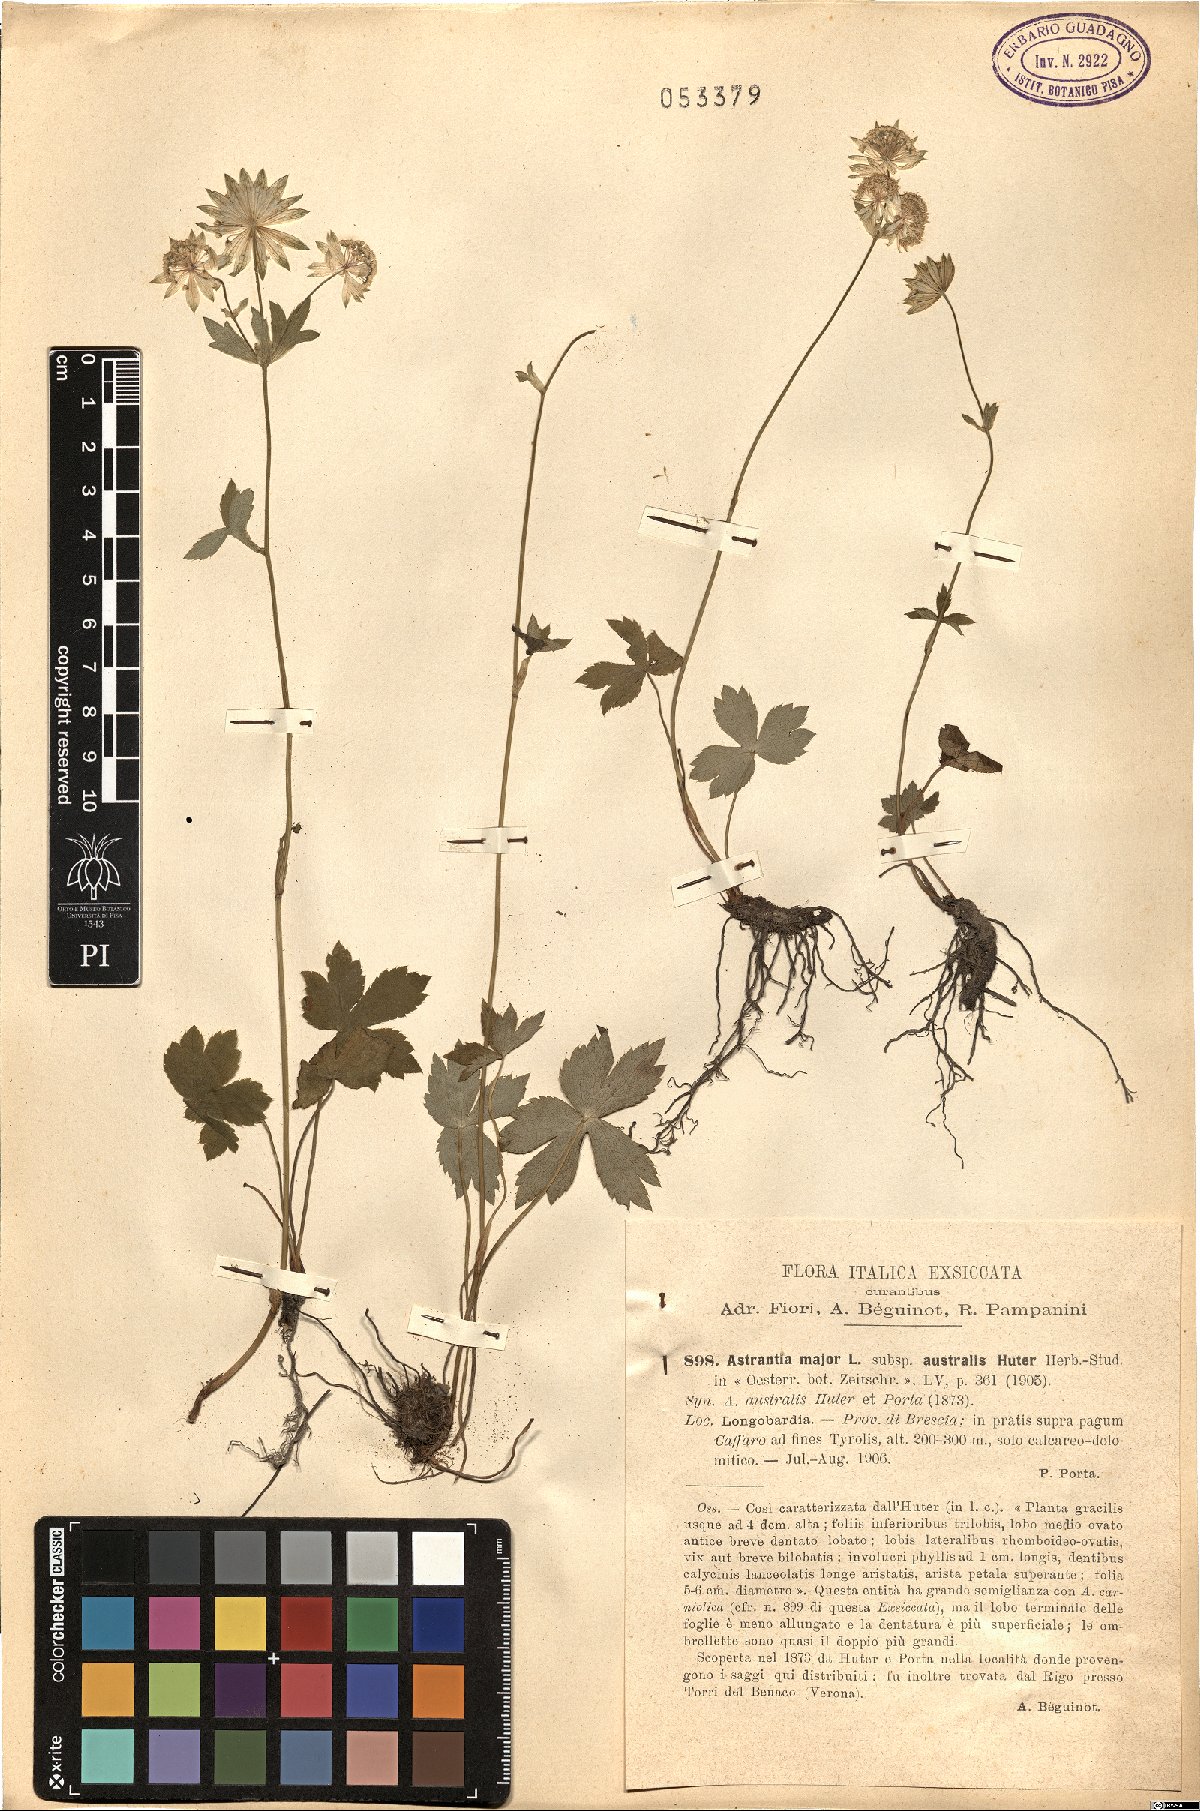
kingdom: Plantae
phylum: Tracheophyta
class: Magnoliopsida
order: Apiales
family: Apiaceae
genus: Astrantia
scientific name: Astrantia major
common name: Greater masterwort
